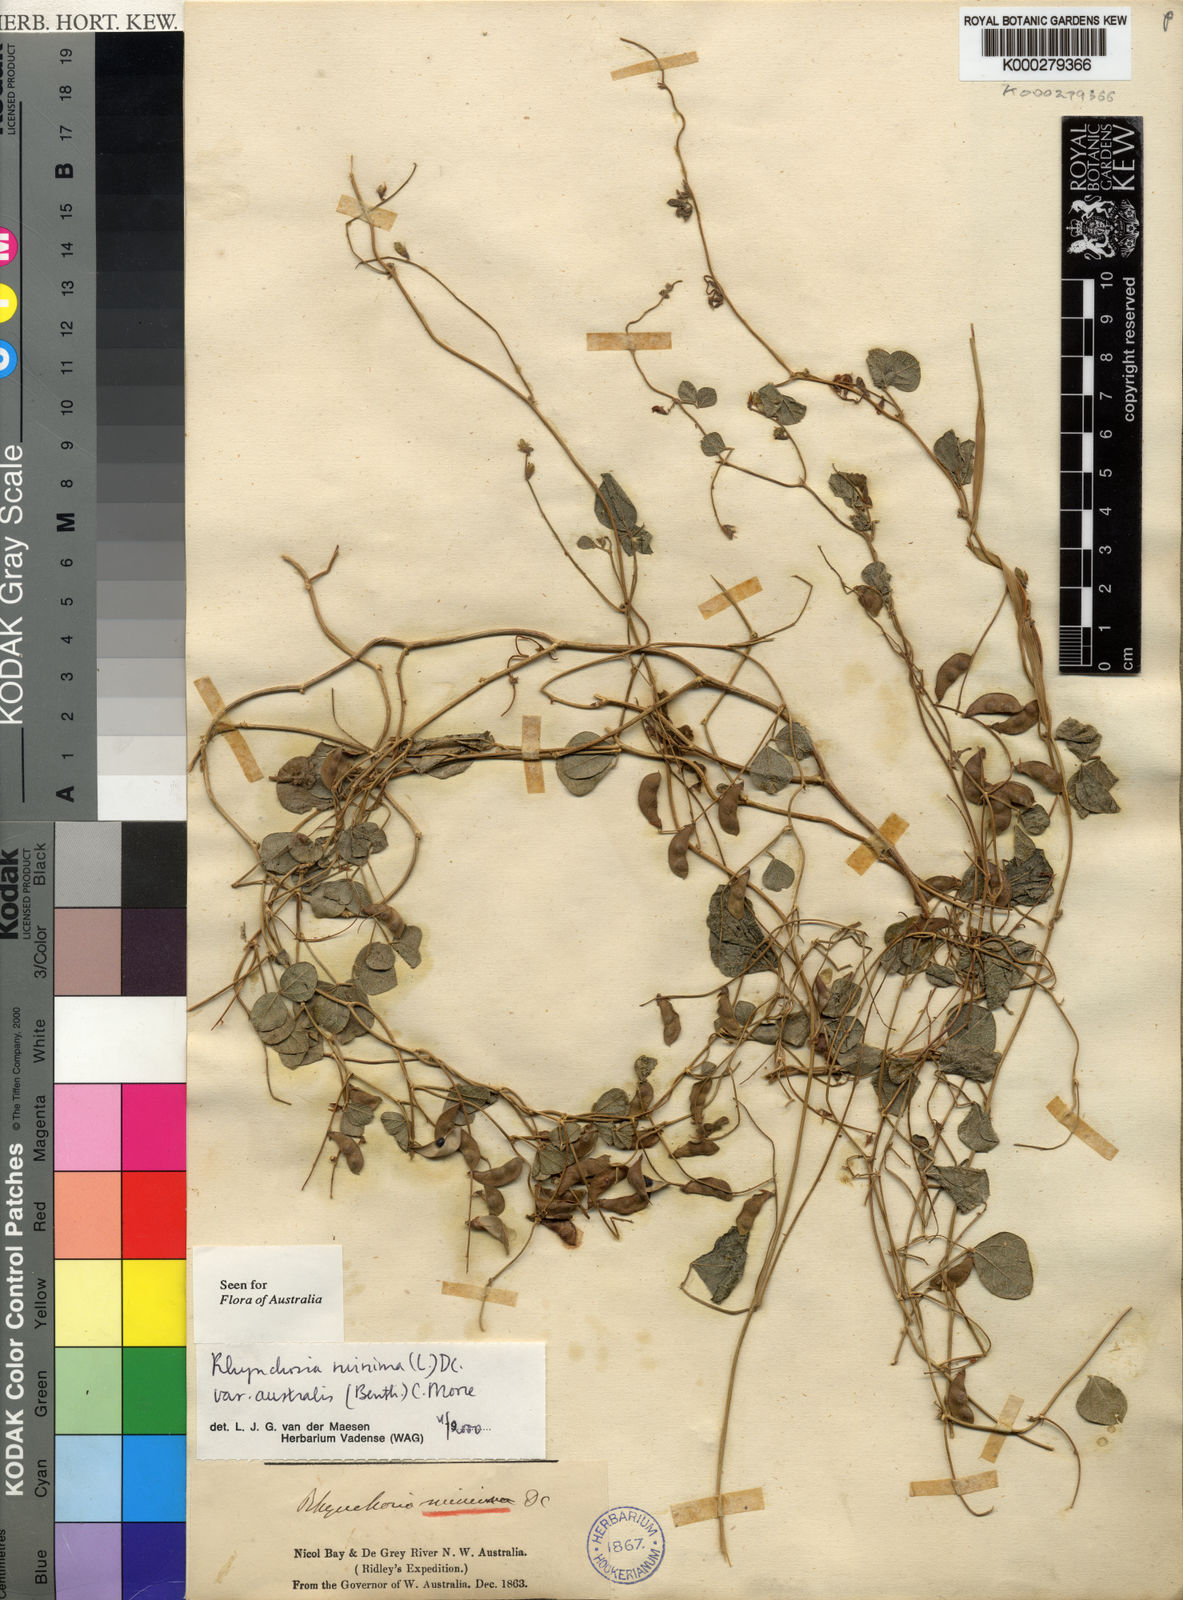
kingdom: Plantae
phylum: Tracheophyta
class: Magnoliopsida
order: Fabales
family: Fabaceae
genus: Rhynchosia
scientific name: Rhynchosia minima
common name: Least snoutbean
